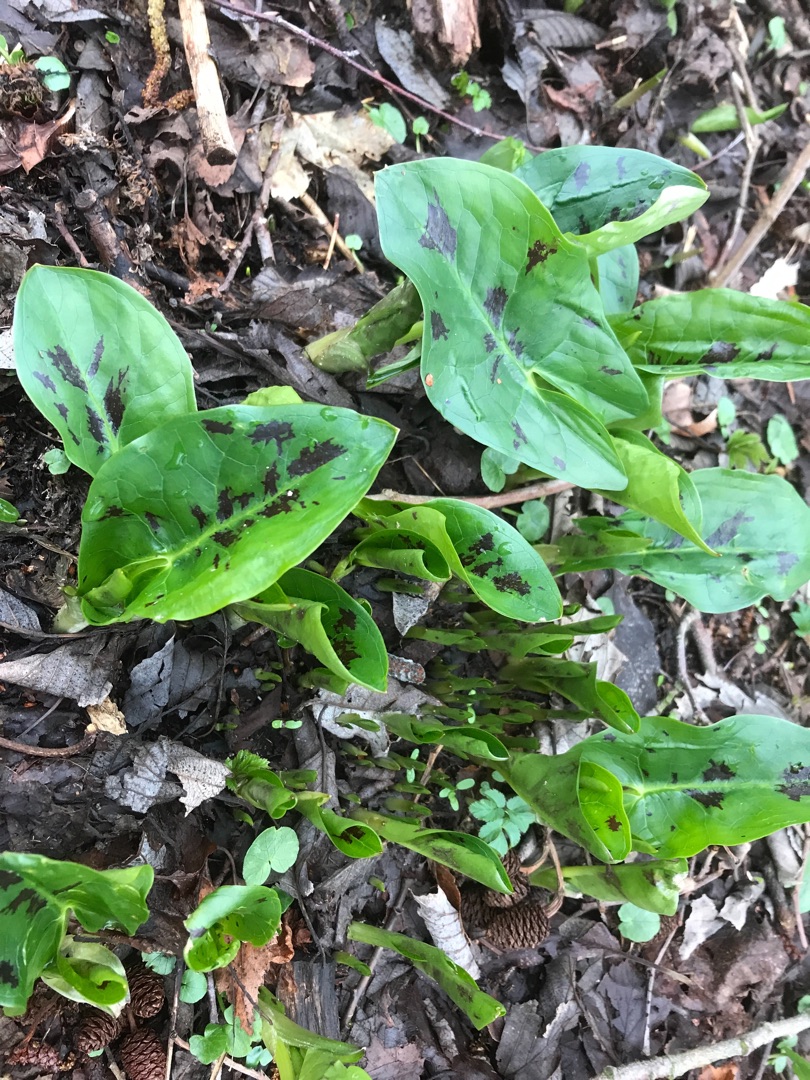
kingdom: Plantae
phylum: Tracheophyta
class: Liliopsida
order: Alismatales
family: Araceae
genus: Arum
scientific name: Arum maculatum
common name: Plettet arum
